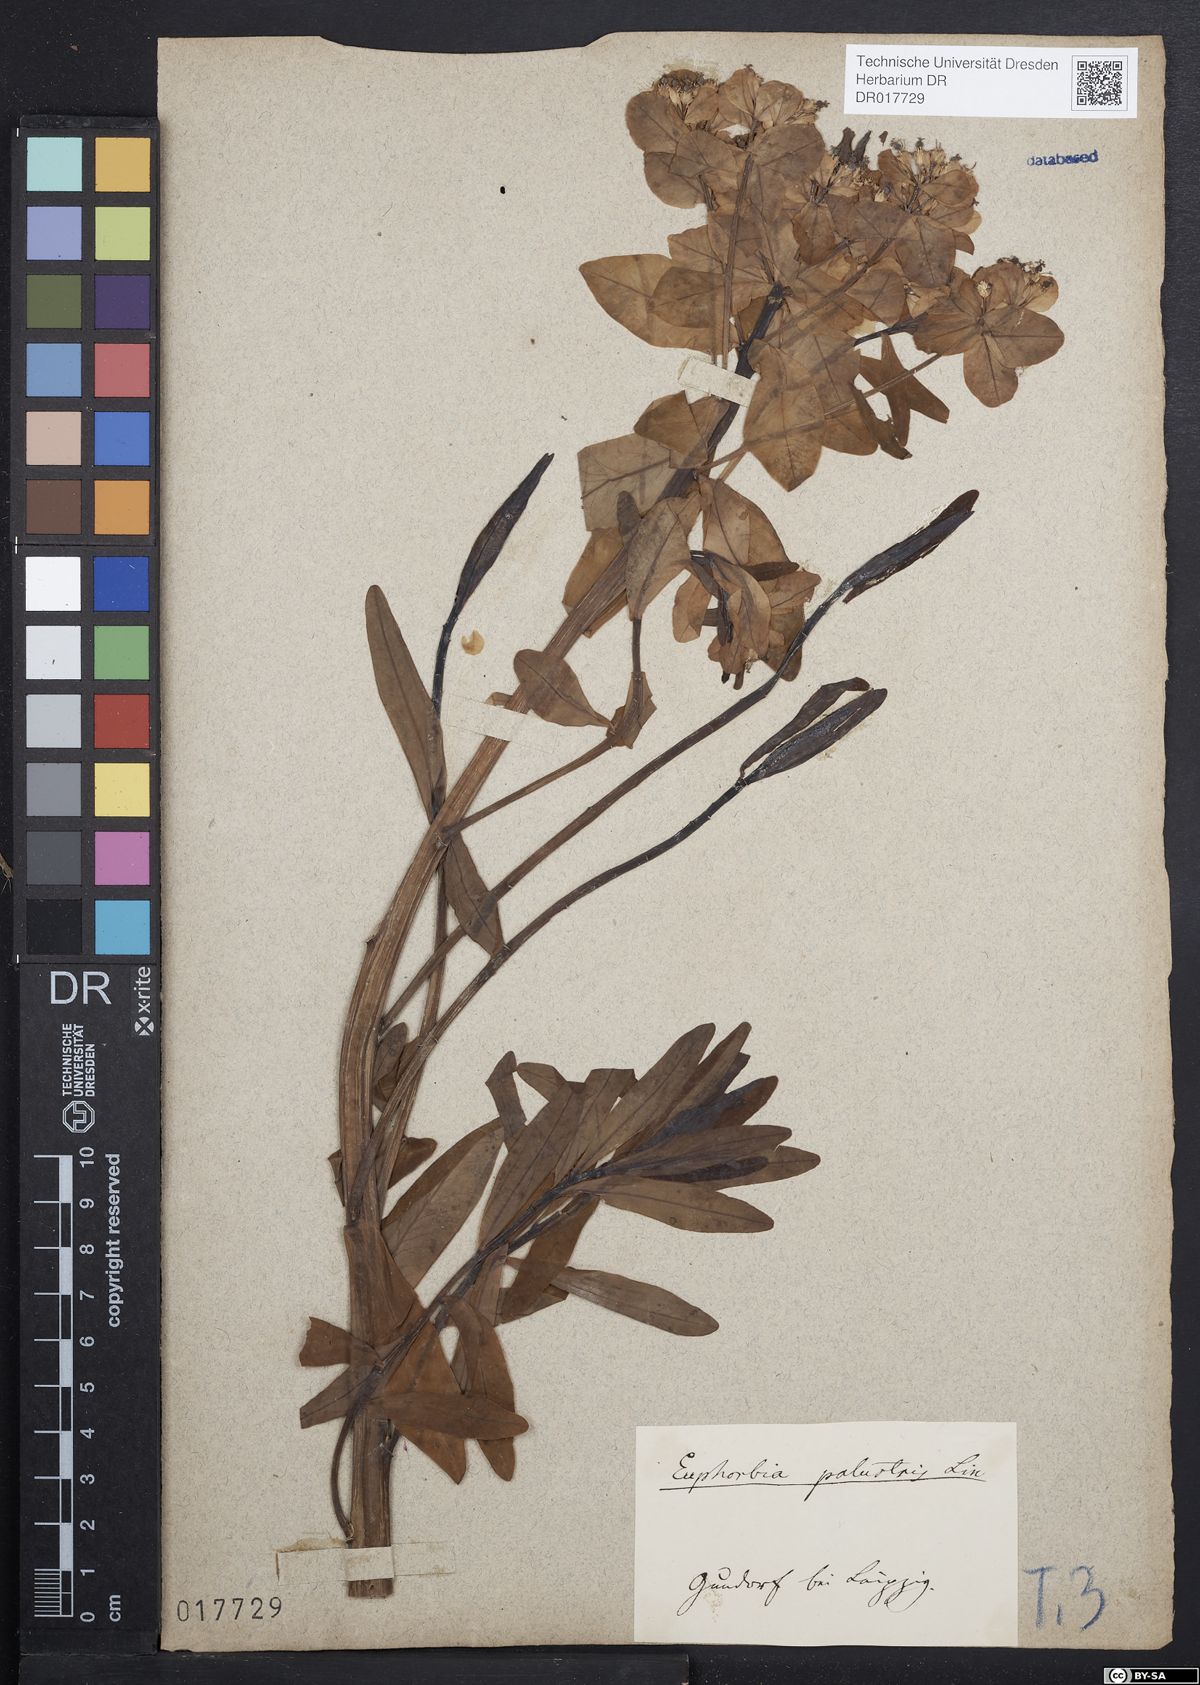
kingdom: Plantae
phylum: Tracheophyta
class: Magnoliopsida
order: Malpighiales
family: Euphorbiaceae
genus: Euphorbia
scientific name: Euphorbia palustris
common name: Marsh spurge
